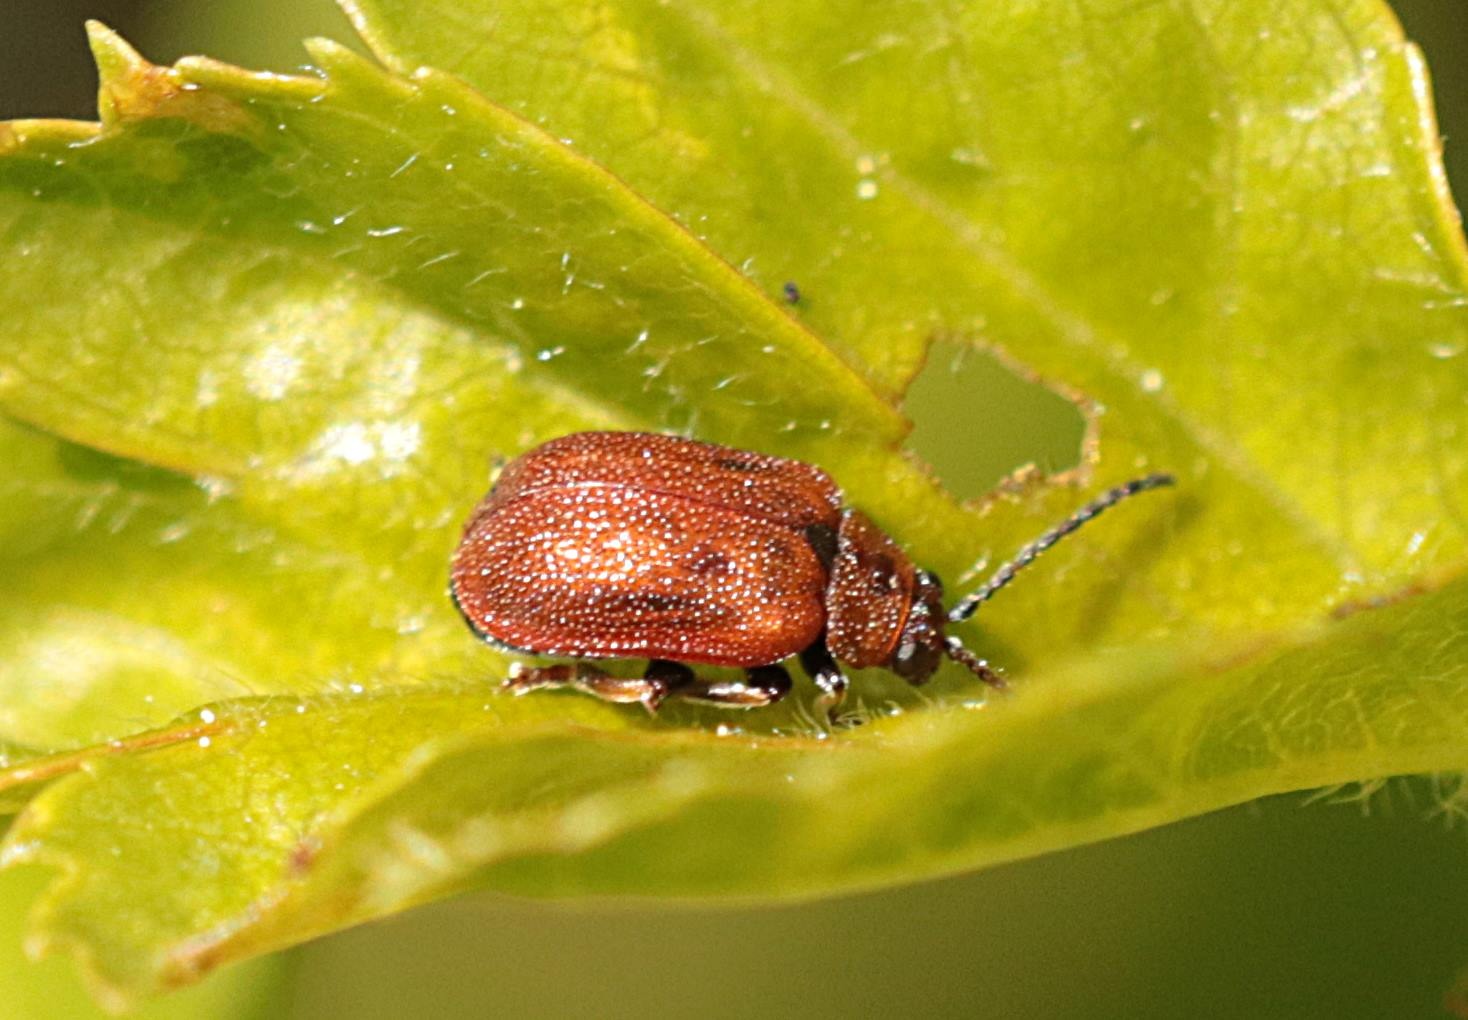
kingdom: Animalia
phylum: Arthropoda
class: Insecta
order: Coleoptera
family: Chrysomelidae
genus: Lochmaea
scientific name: Lochmaea crataegi
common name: Tjørnebladbille
